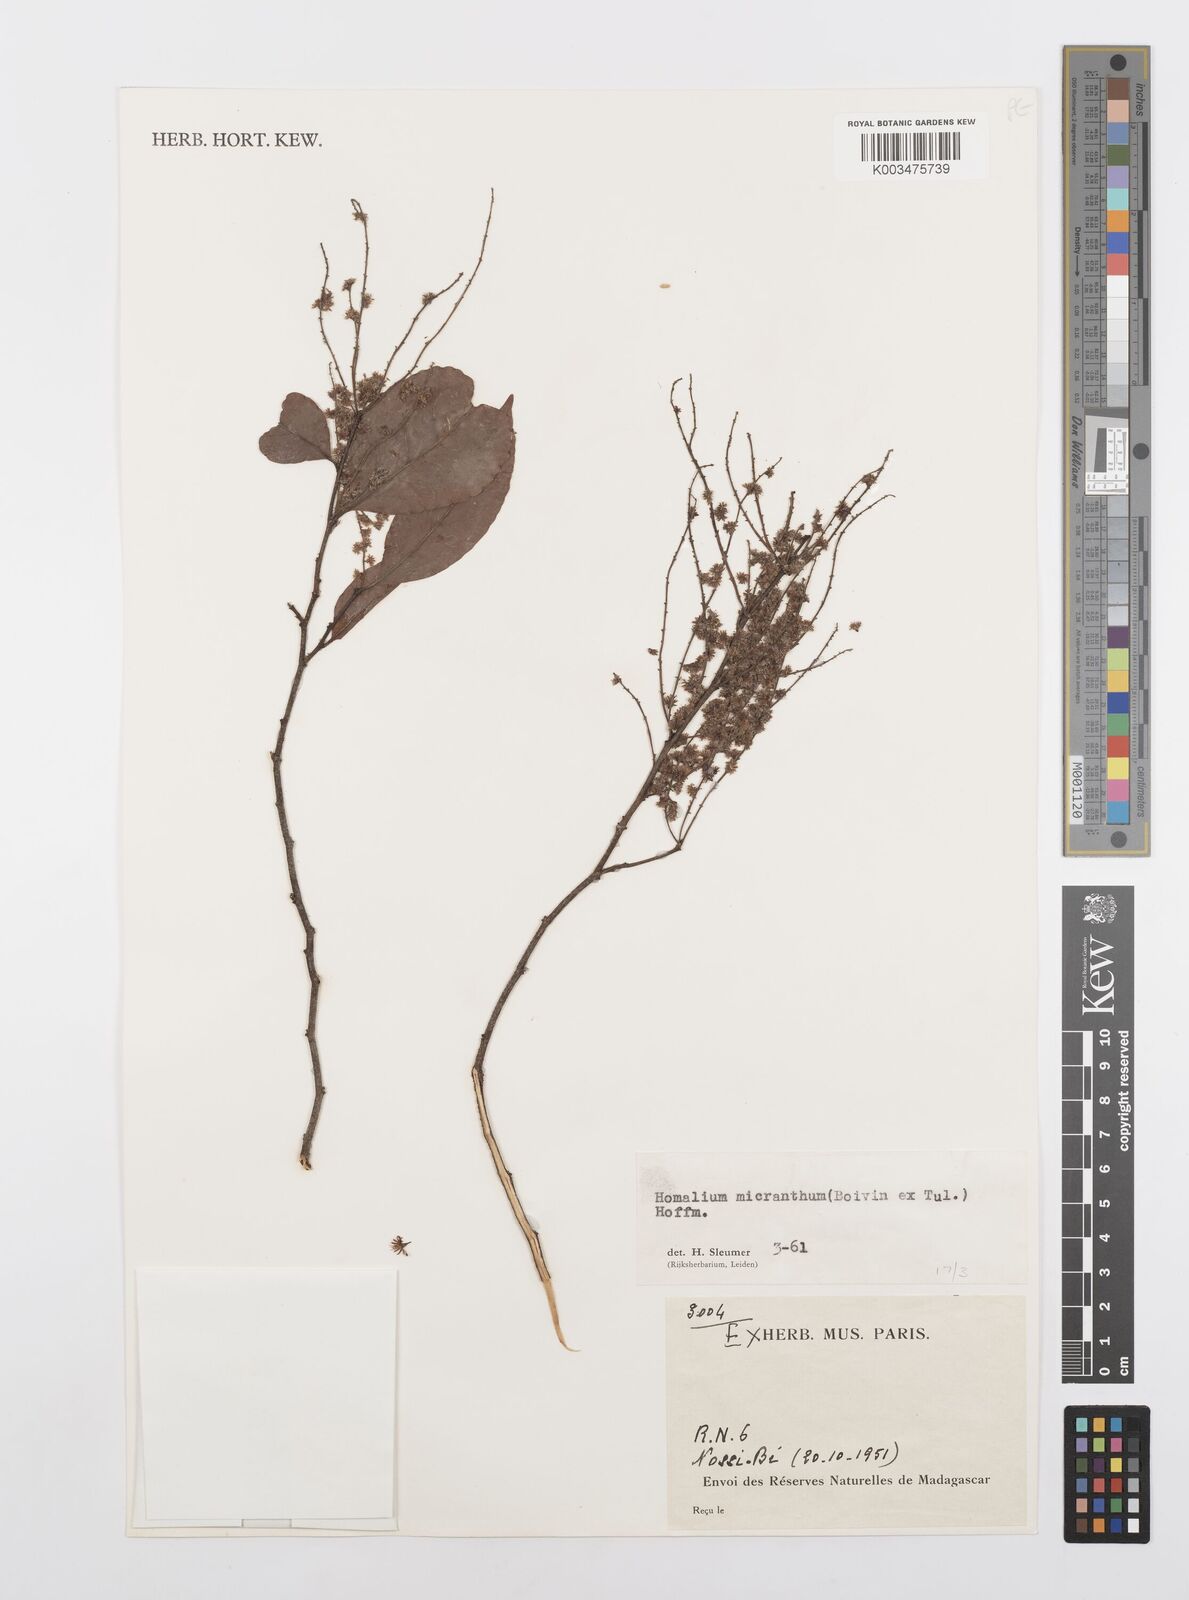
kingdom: Plantae
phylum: Tracheophyta
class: Magnoliopsida
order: Malpighiales
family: Salicaceae
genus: Homalium
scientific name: Homalium micranthum
